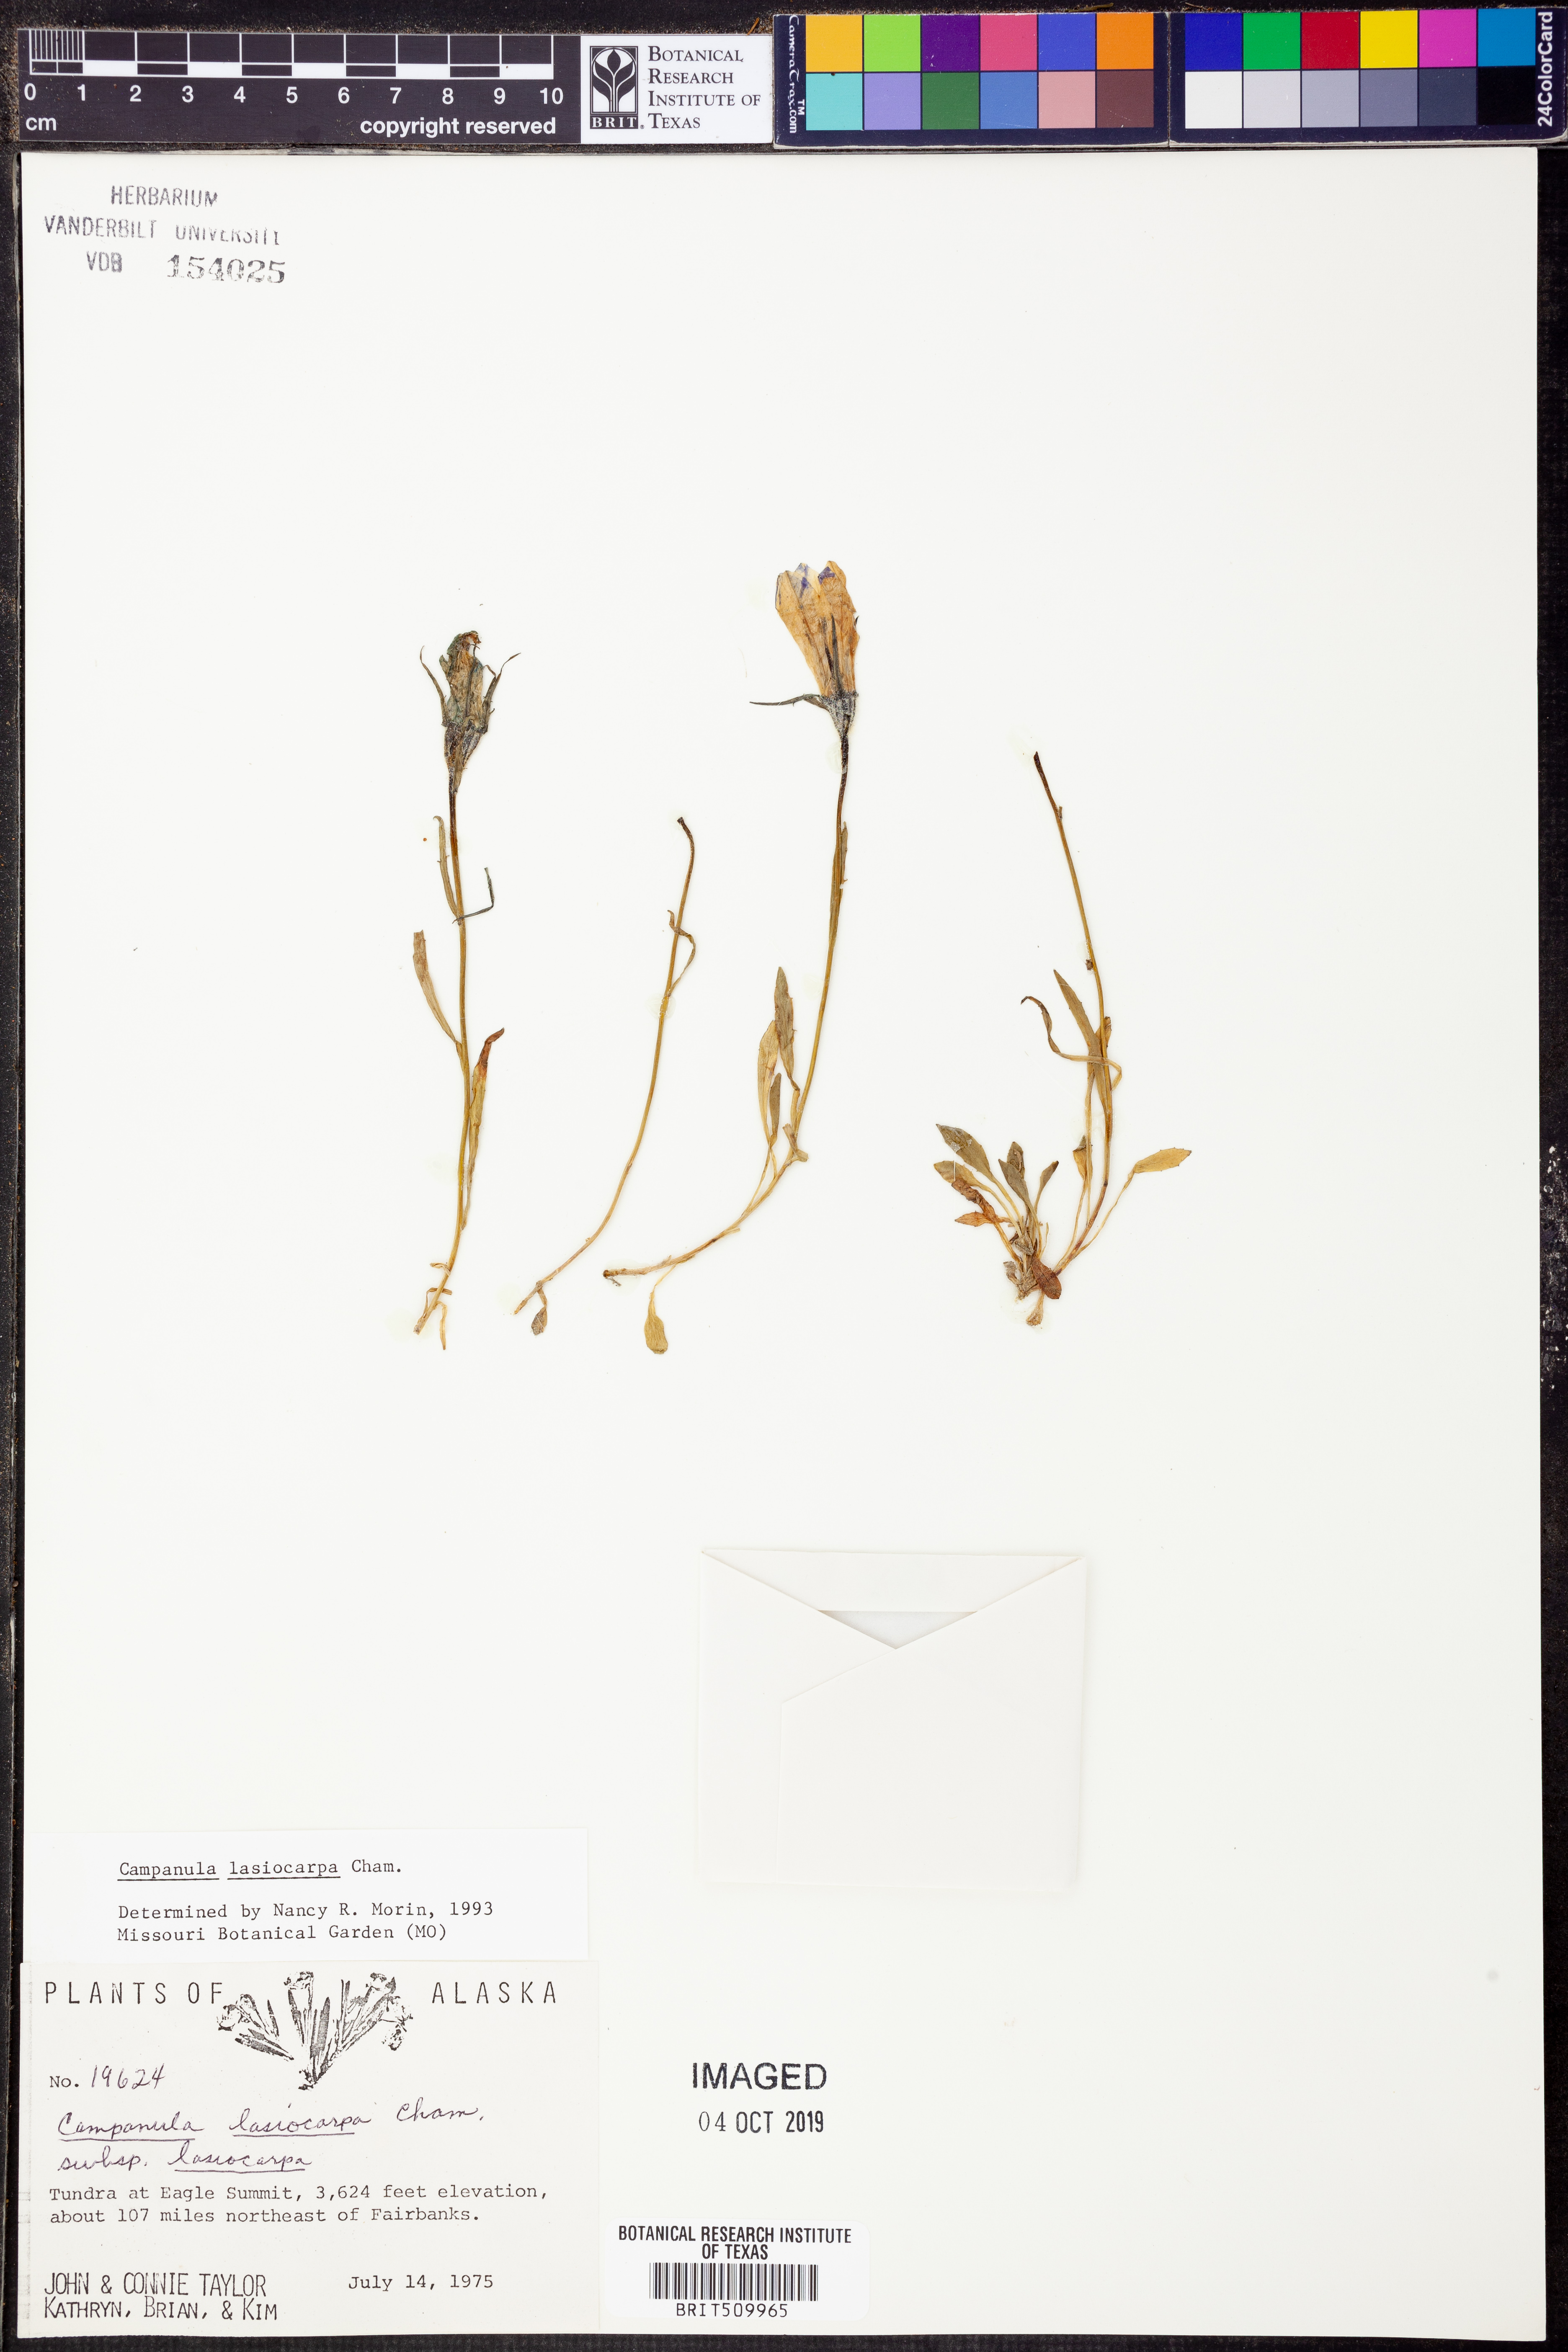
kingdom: Plantae
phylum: Tracheophyta
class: Magnoliopsida
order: Asterales
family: Campanulaceae
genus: Campanula
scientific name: Campanula lasiocarpa
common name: Mountain harebell
